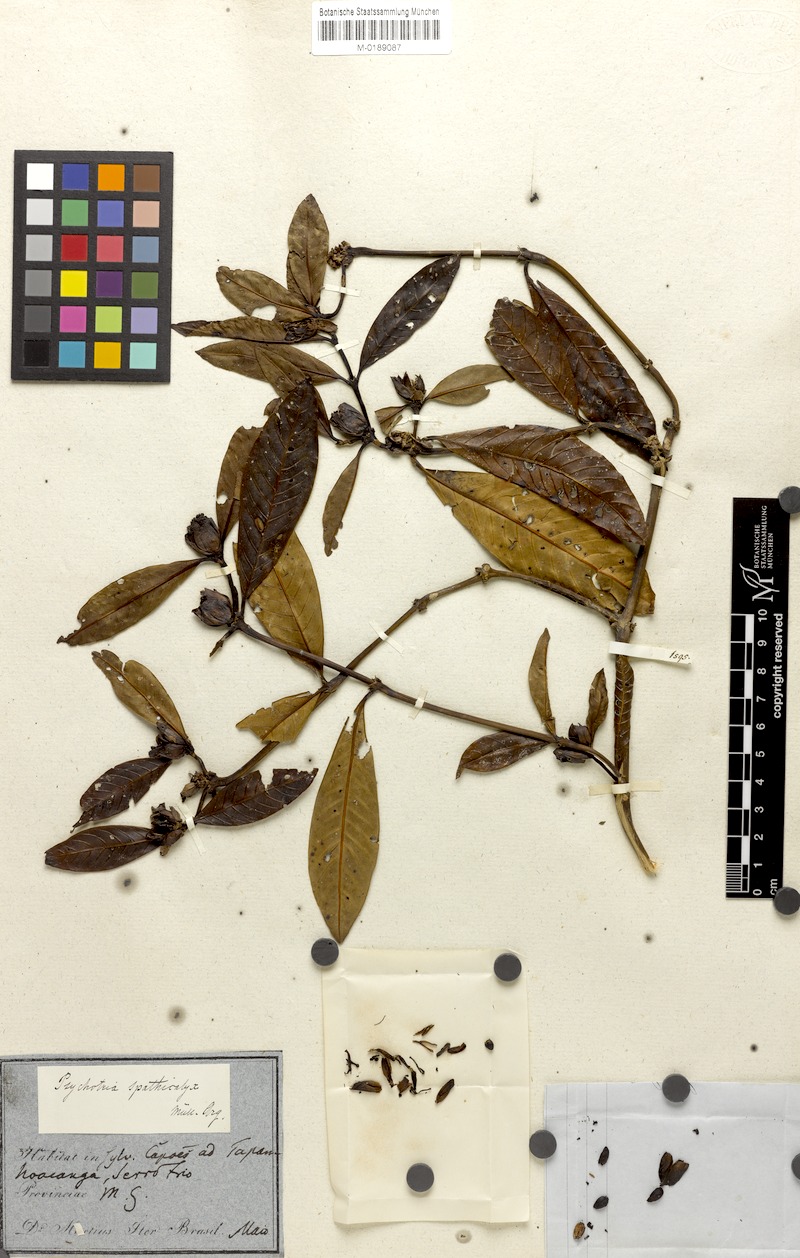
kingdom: Plantae
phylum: Tracheophyta
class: Magnoliopsida
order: Gentianales
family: Rubiaceae
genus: Psychotria
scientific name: Psychotria spathicalyx
